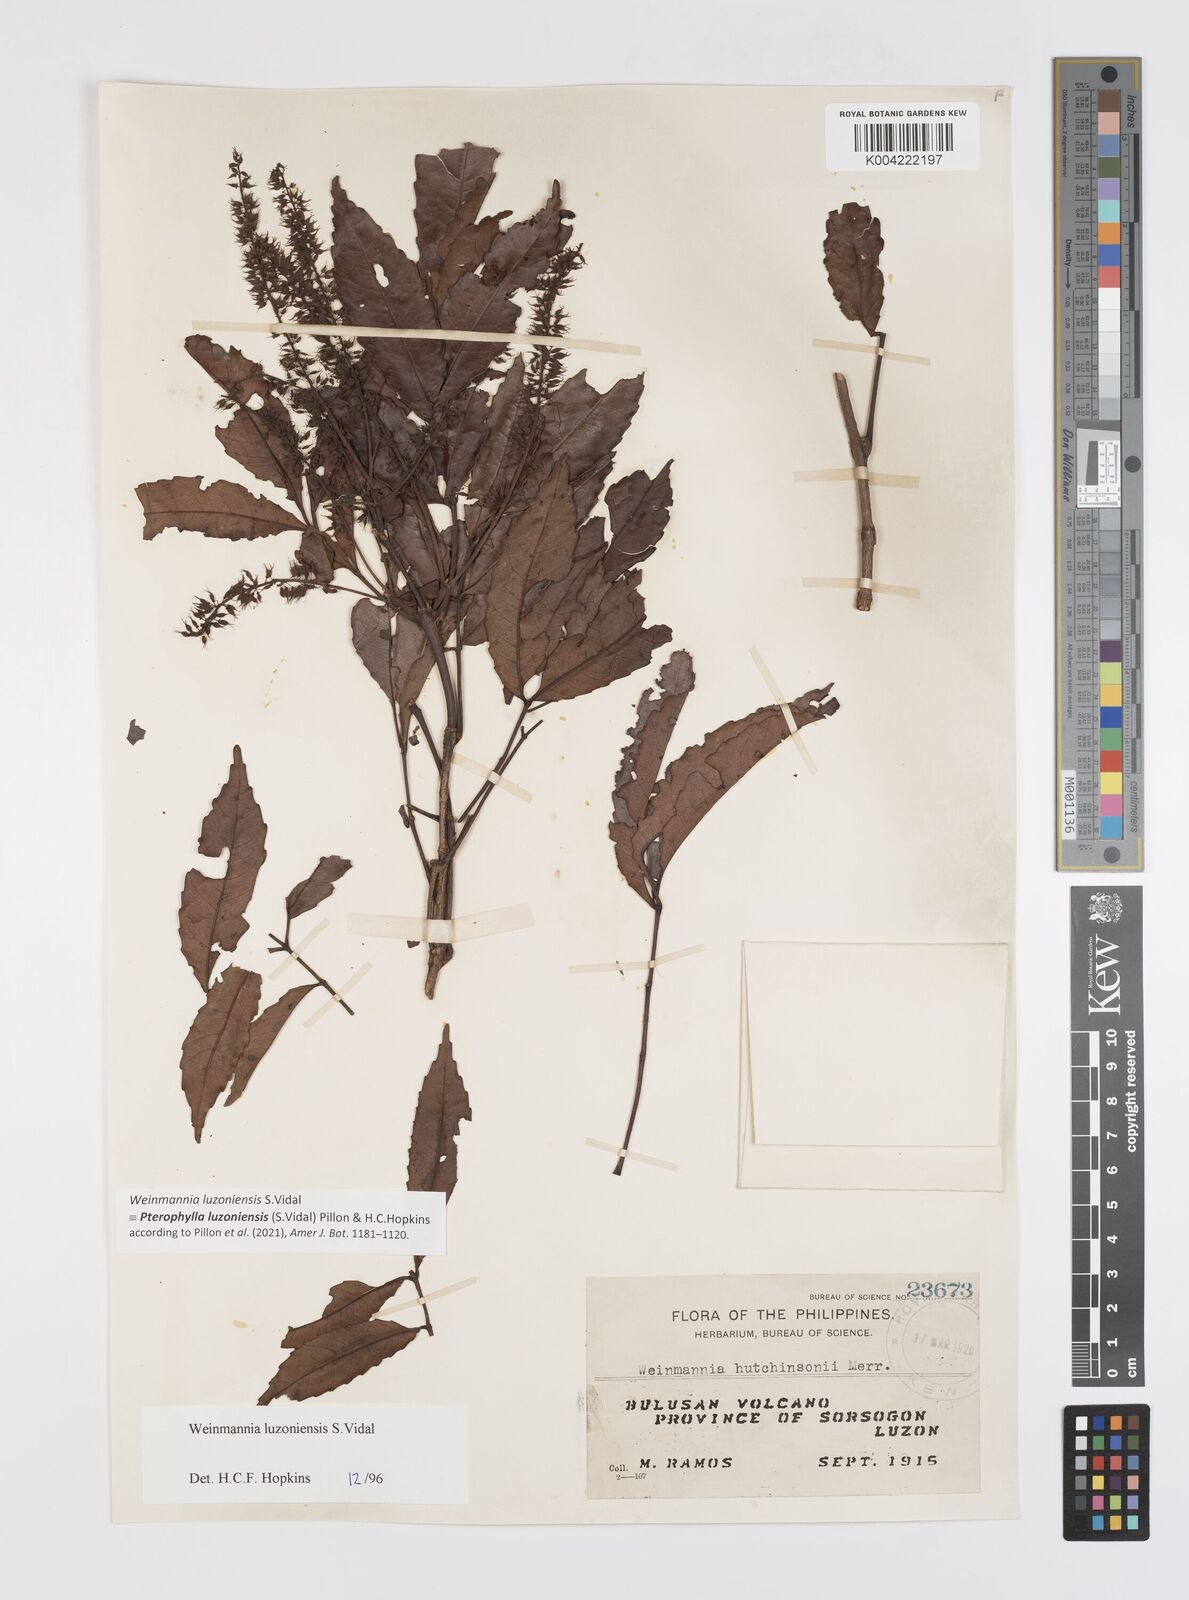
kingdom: Plantae
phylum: Tracheophyta
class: Magnoliopsida
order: Oxalidales
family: Cunoniaceae
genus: Pterophylla
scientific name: Pterophylla luzoniensis
